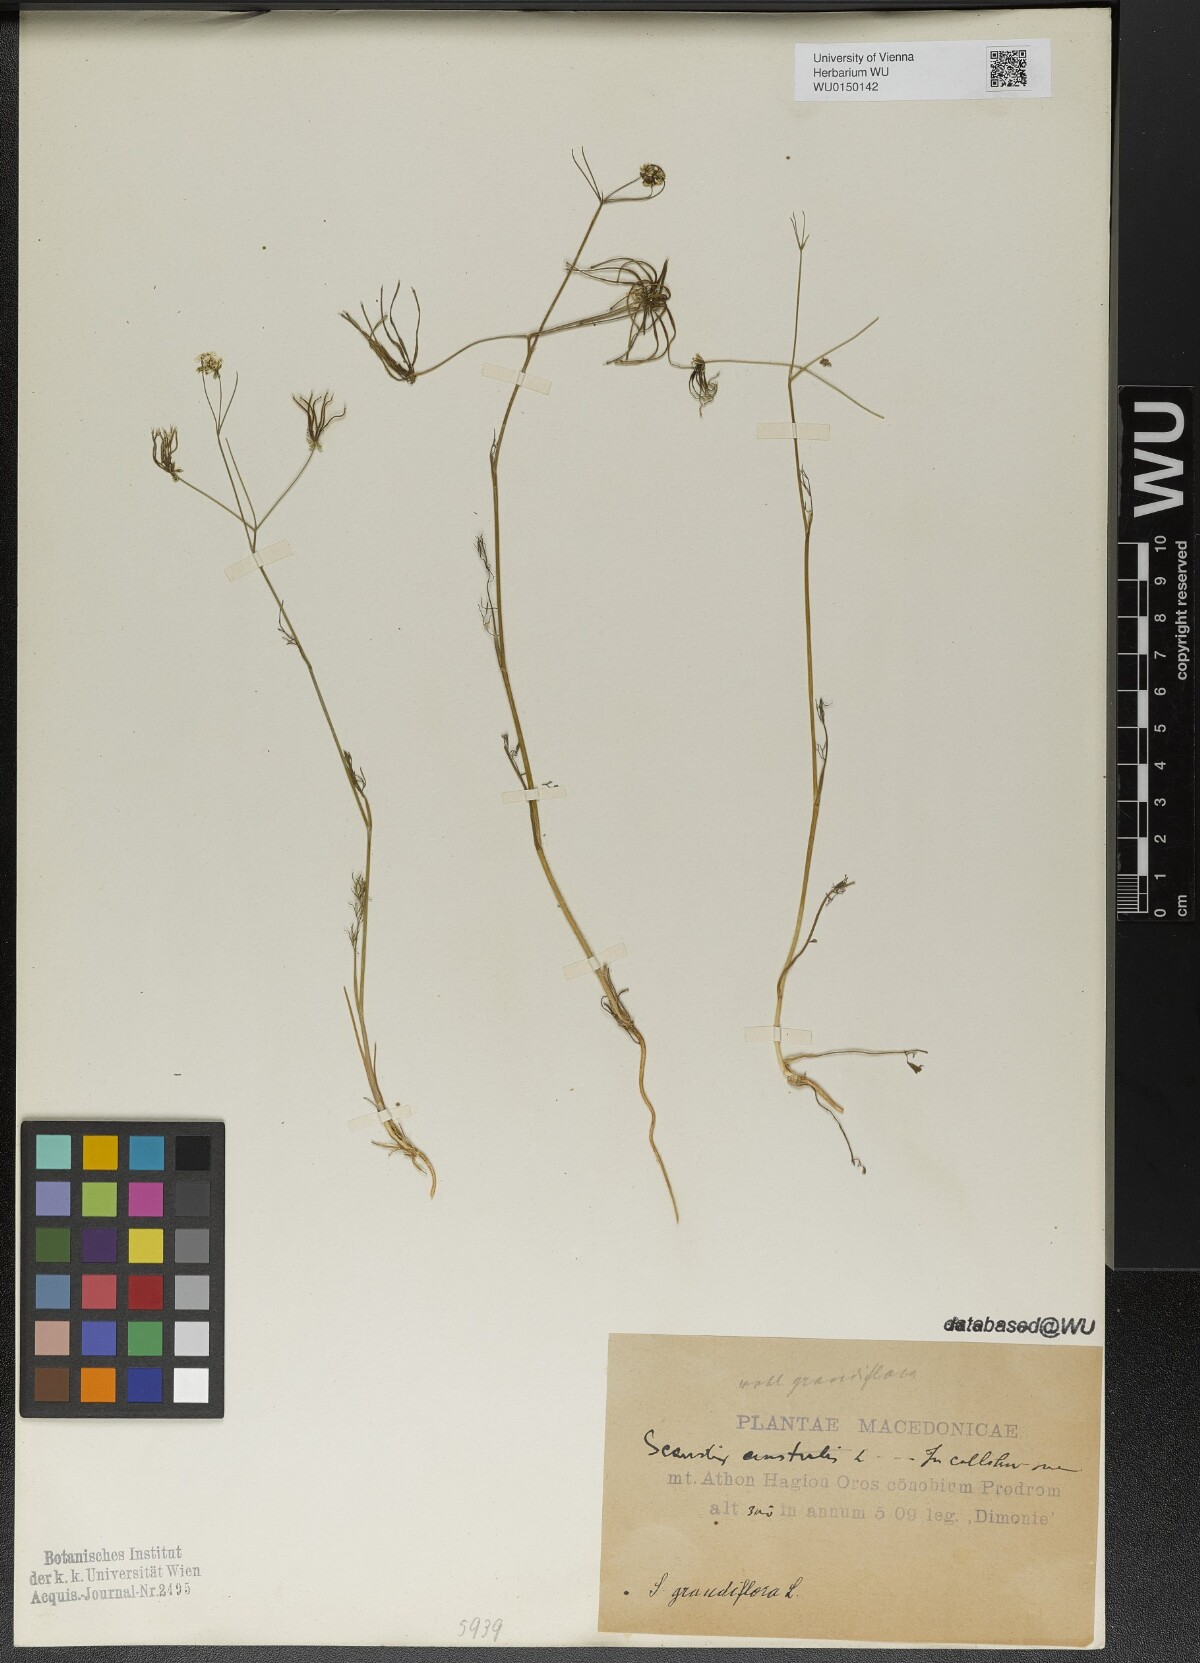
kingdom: Plantae
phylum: Tracheophyta
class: Magnoliopsida
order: Apiales
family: Apiaceae
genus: Scandix
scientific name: Scandix australis
